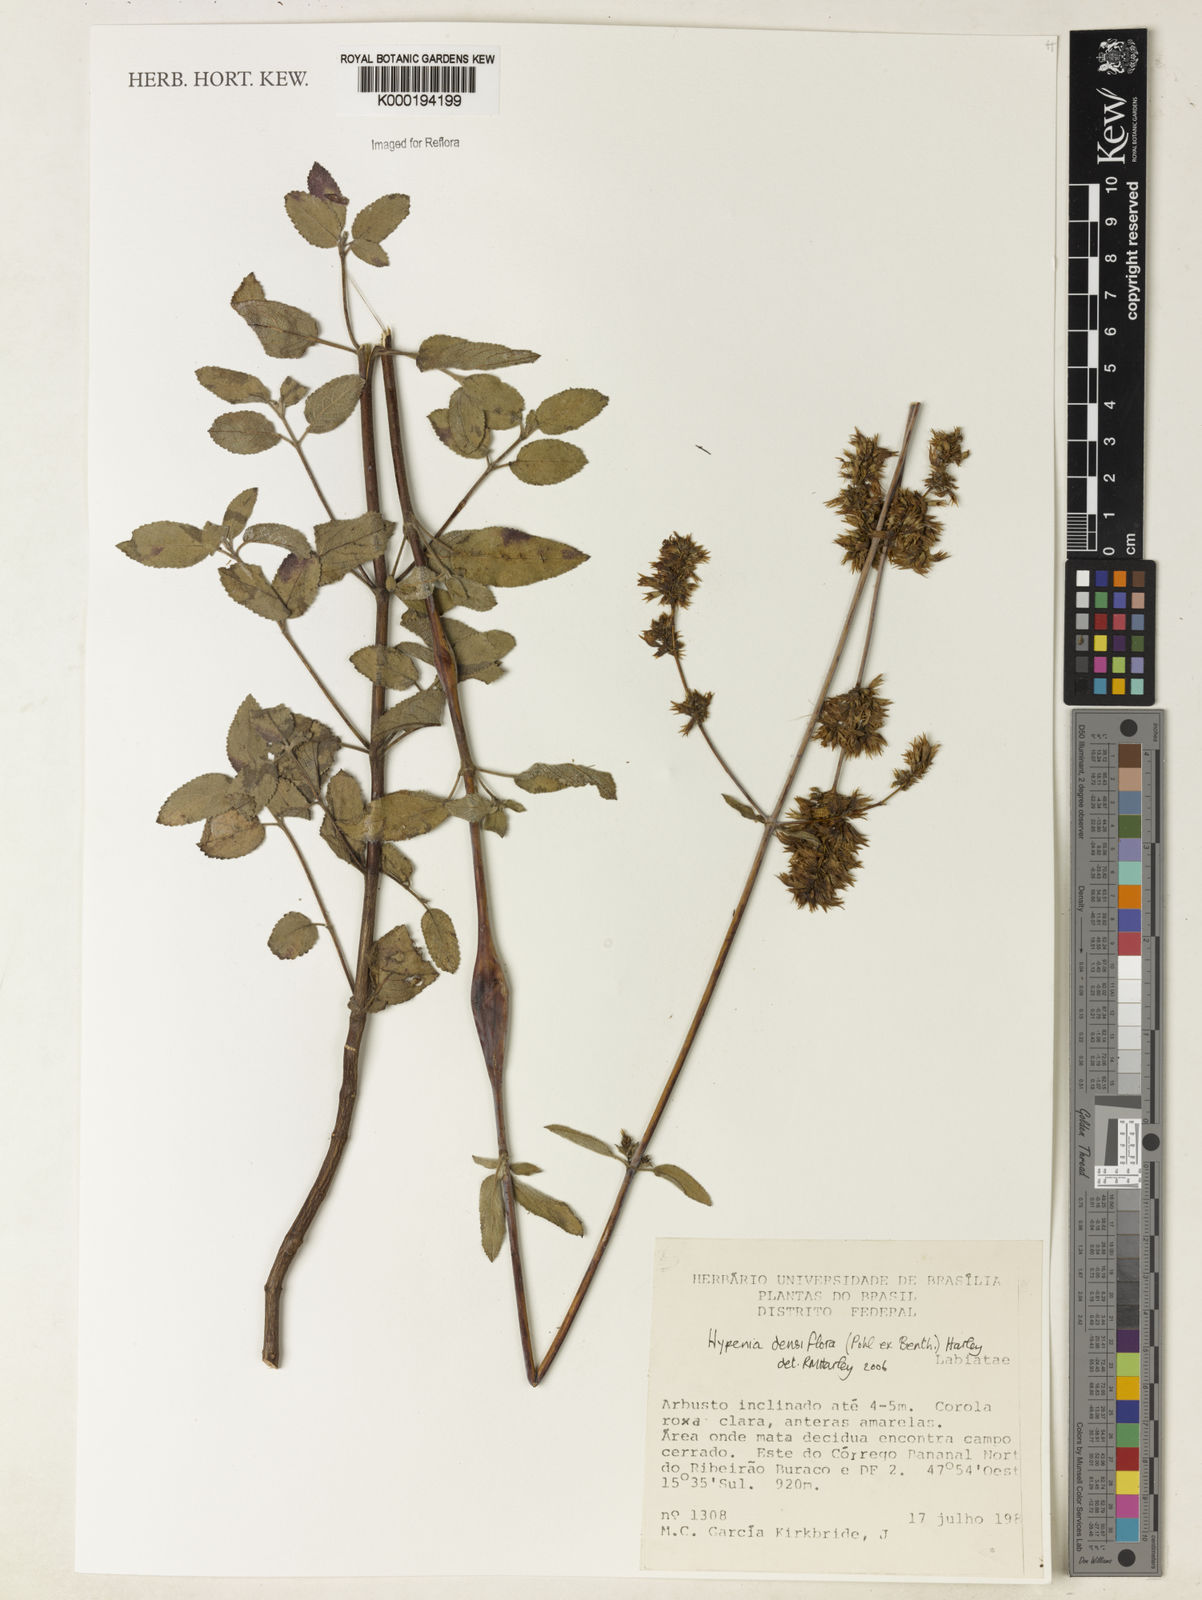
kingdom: Plantae
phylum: Tracheophyta
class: Magnoliopsida
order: Lamiales
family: Lamiaceae
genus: Hypenia
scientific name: Hypenia densiflora
